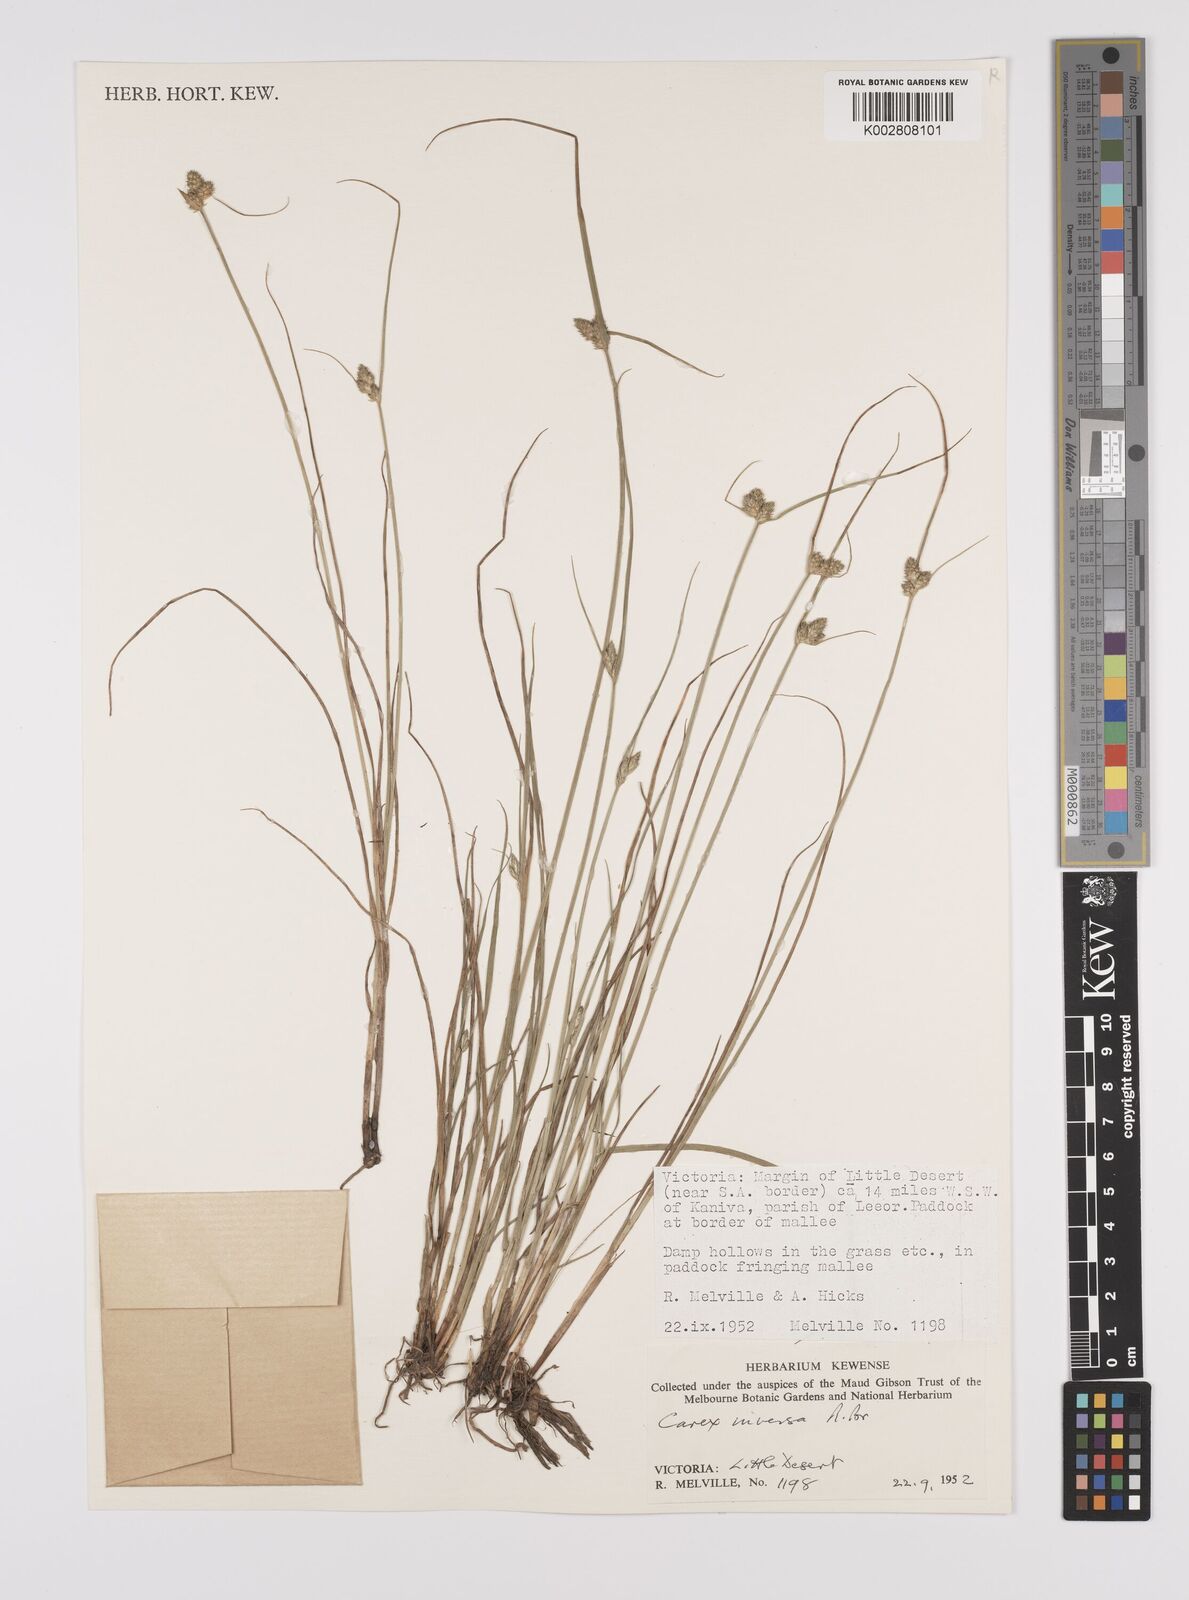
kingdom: Plantae
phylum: Tracheophyta
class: Liliopsida
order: Poales
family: Cyperaceae
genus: Carex
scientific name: Carex inversa
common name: Knob sedge
